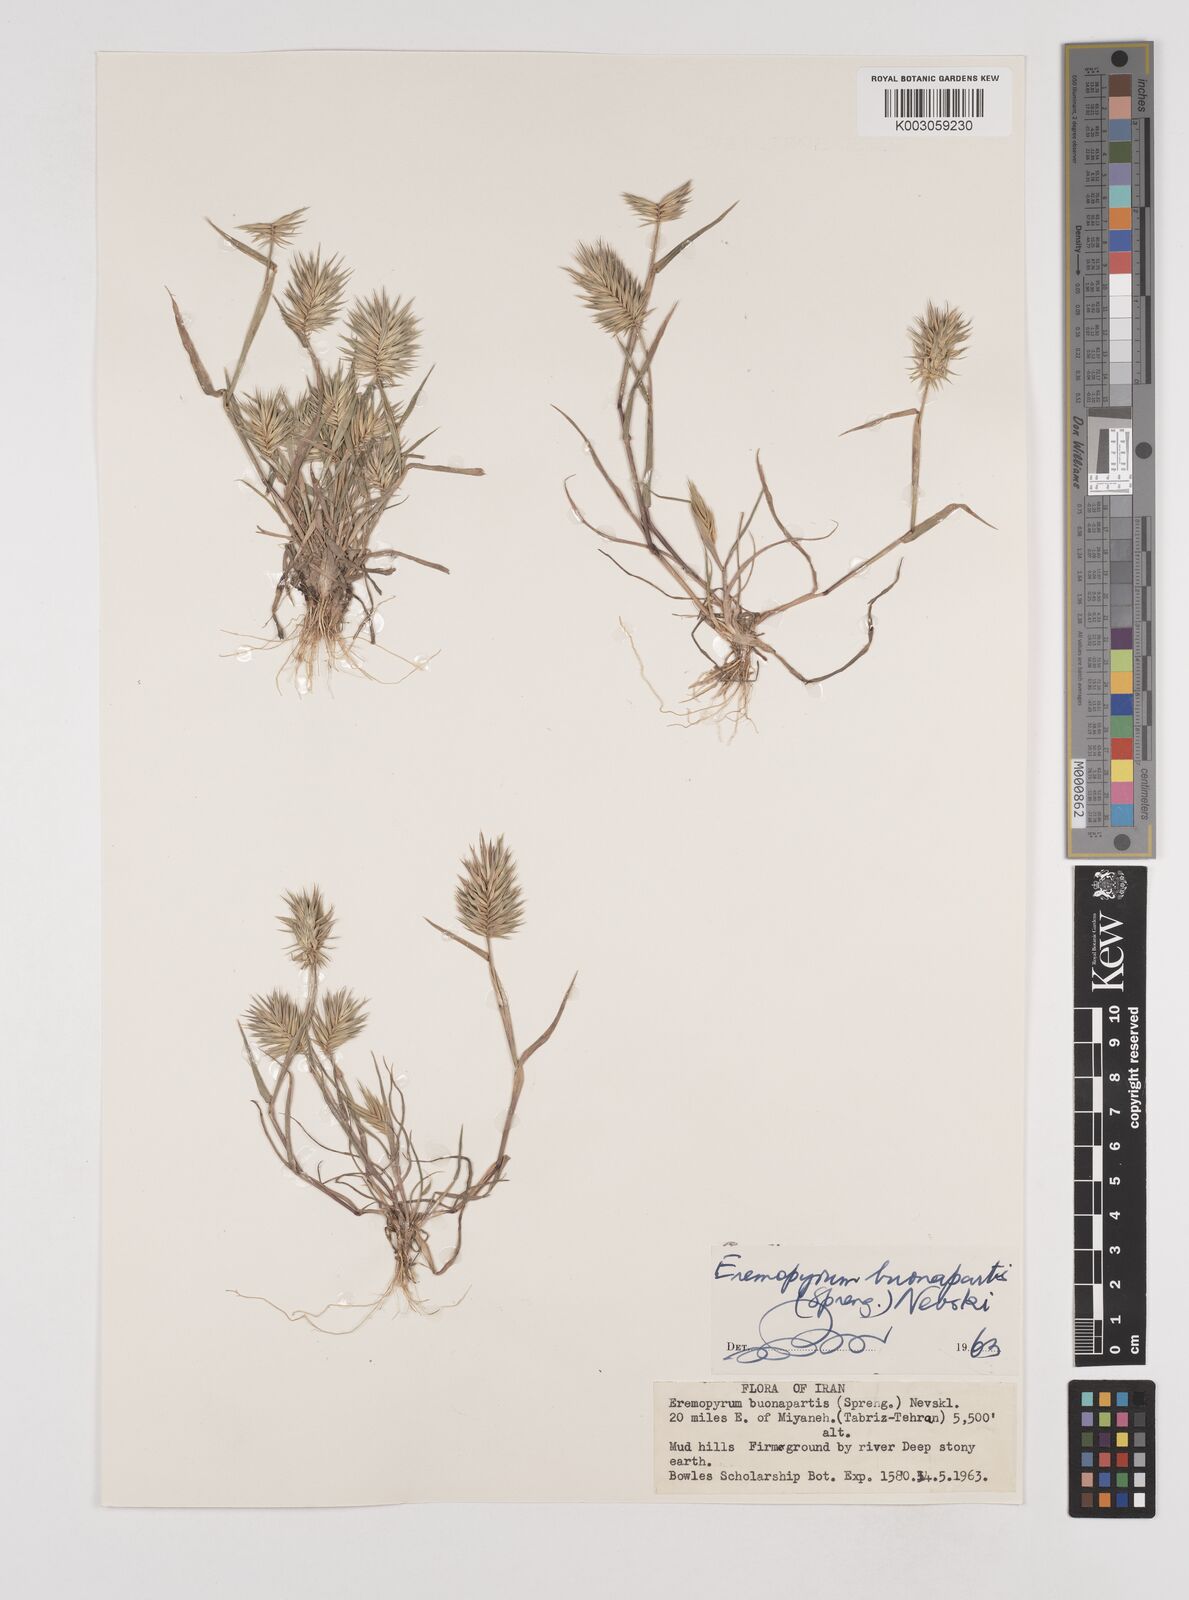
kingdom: Plantae
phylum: Tracheophyta
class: Liliopsida
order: Poales
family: Poaceae
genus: Eremopyrum
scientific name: Eremopyrum bonaepartis
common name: Tapertip false wheatgrass
